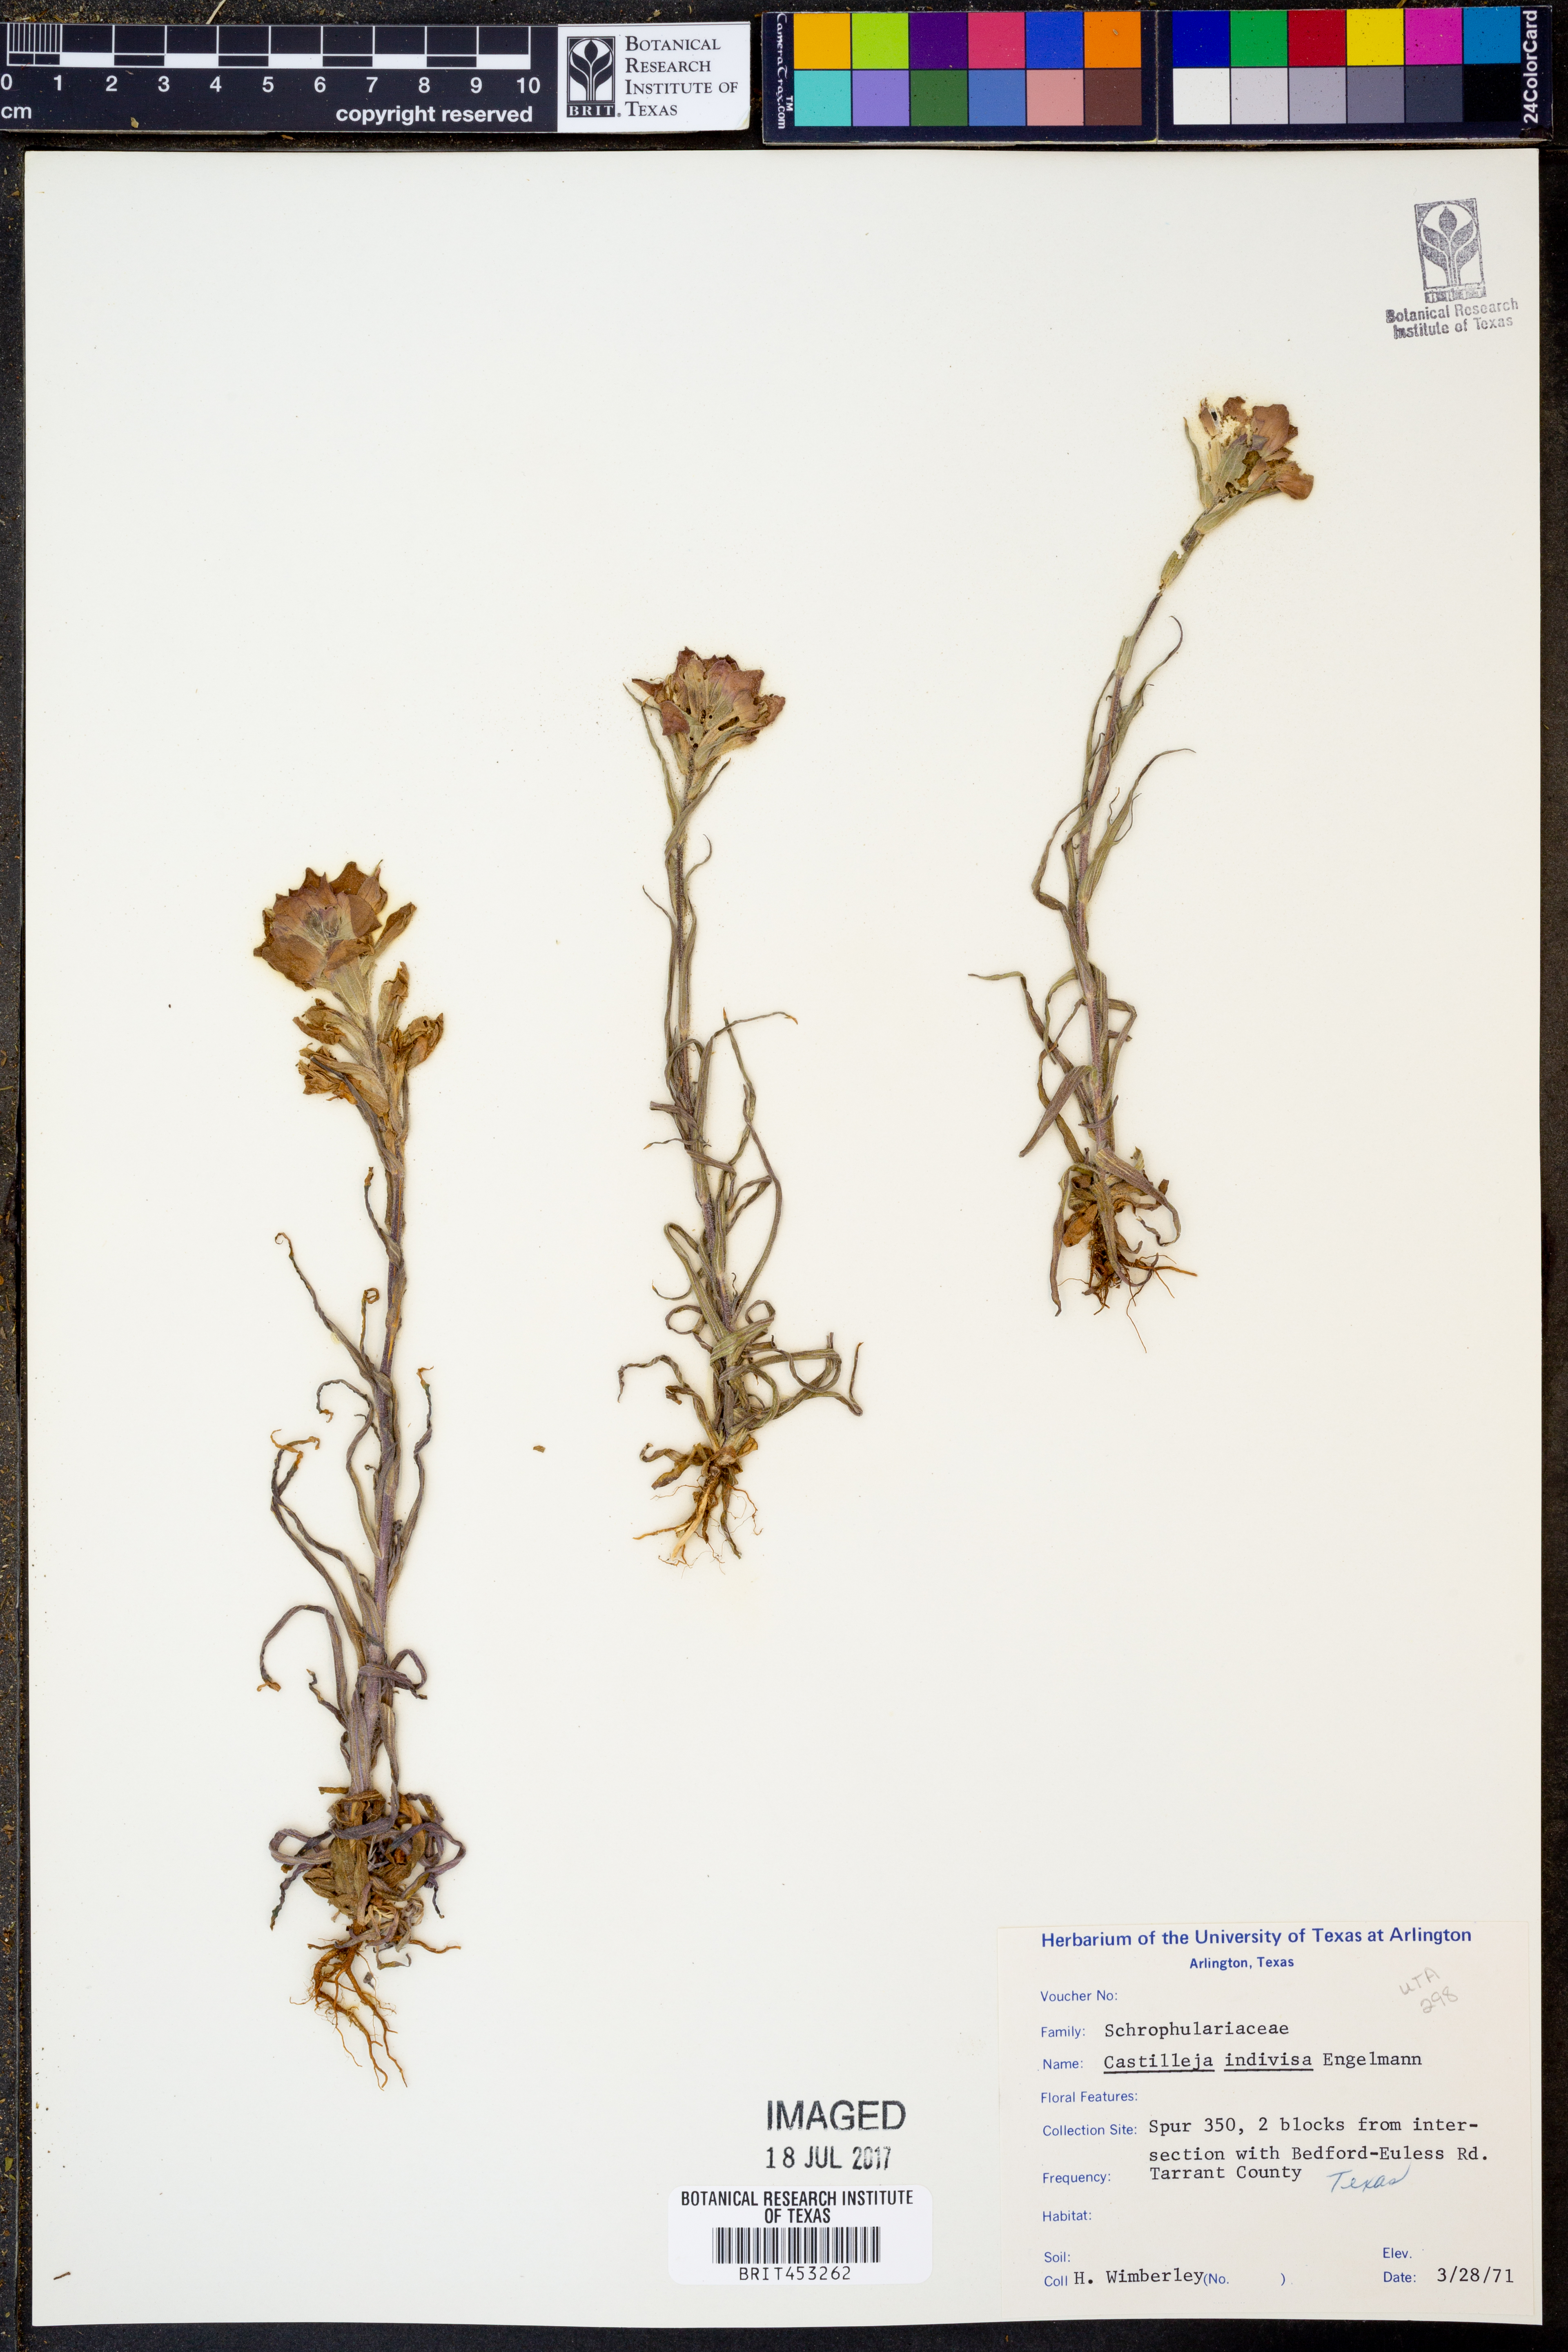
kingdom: Plantae
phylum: Tracheophyta
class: Magnoliopsida
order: Lamiales
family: Orobanchaceae
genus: Castilleja
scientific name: Castilleja indivisa
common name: Texas paintbrush
